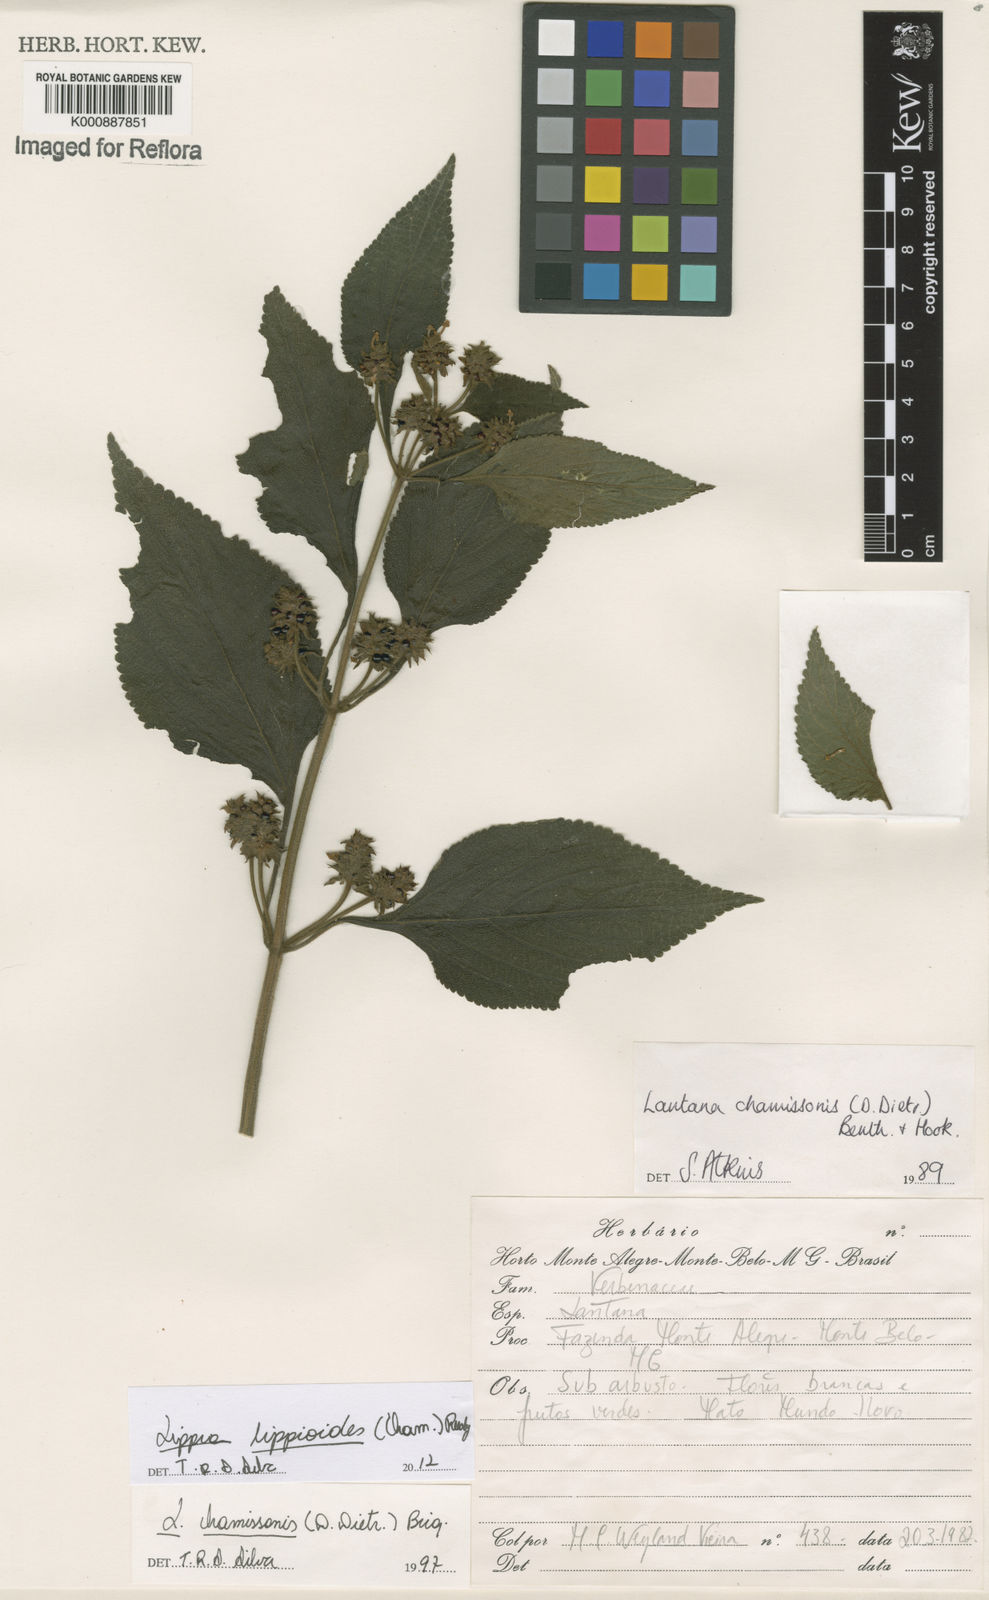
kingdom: Plantae
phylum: Tracheophyta
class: Magnoliopsida
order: Lamiales
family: Verbenaceae
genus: Lippia
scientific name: Lippia lippioides
